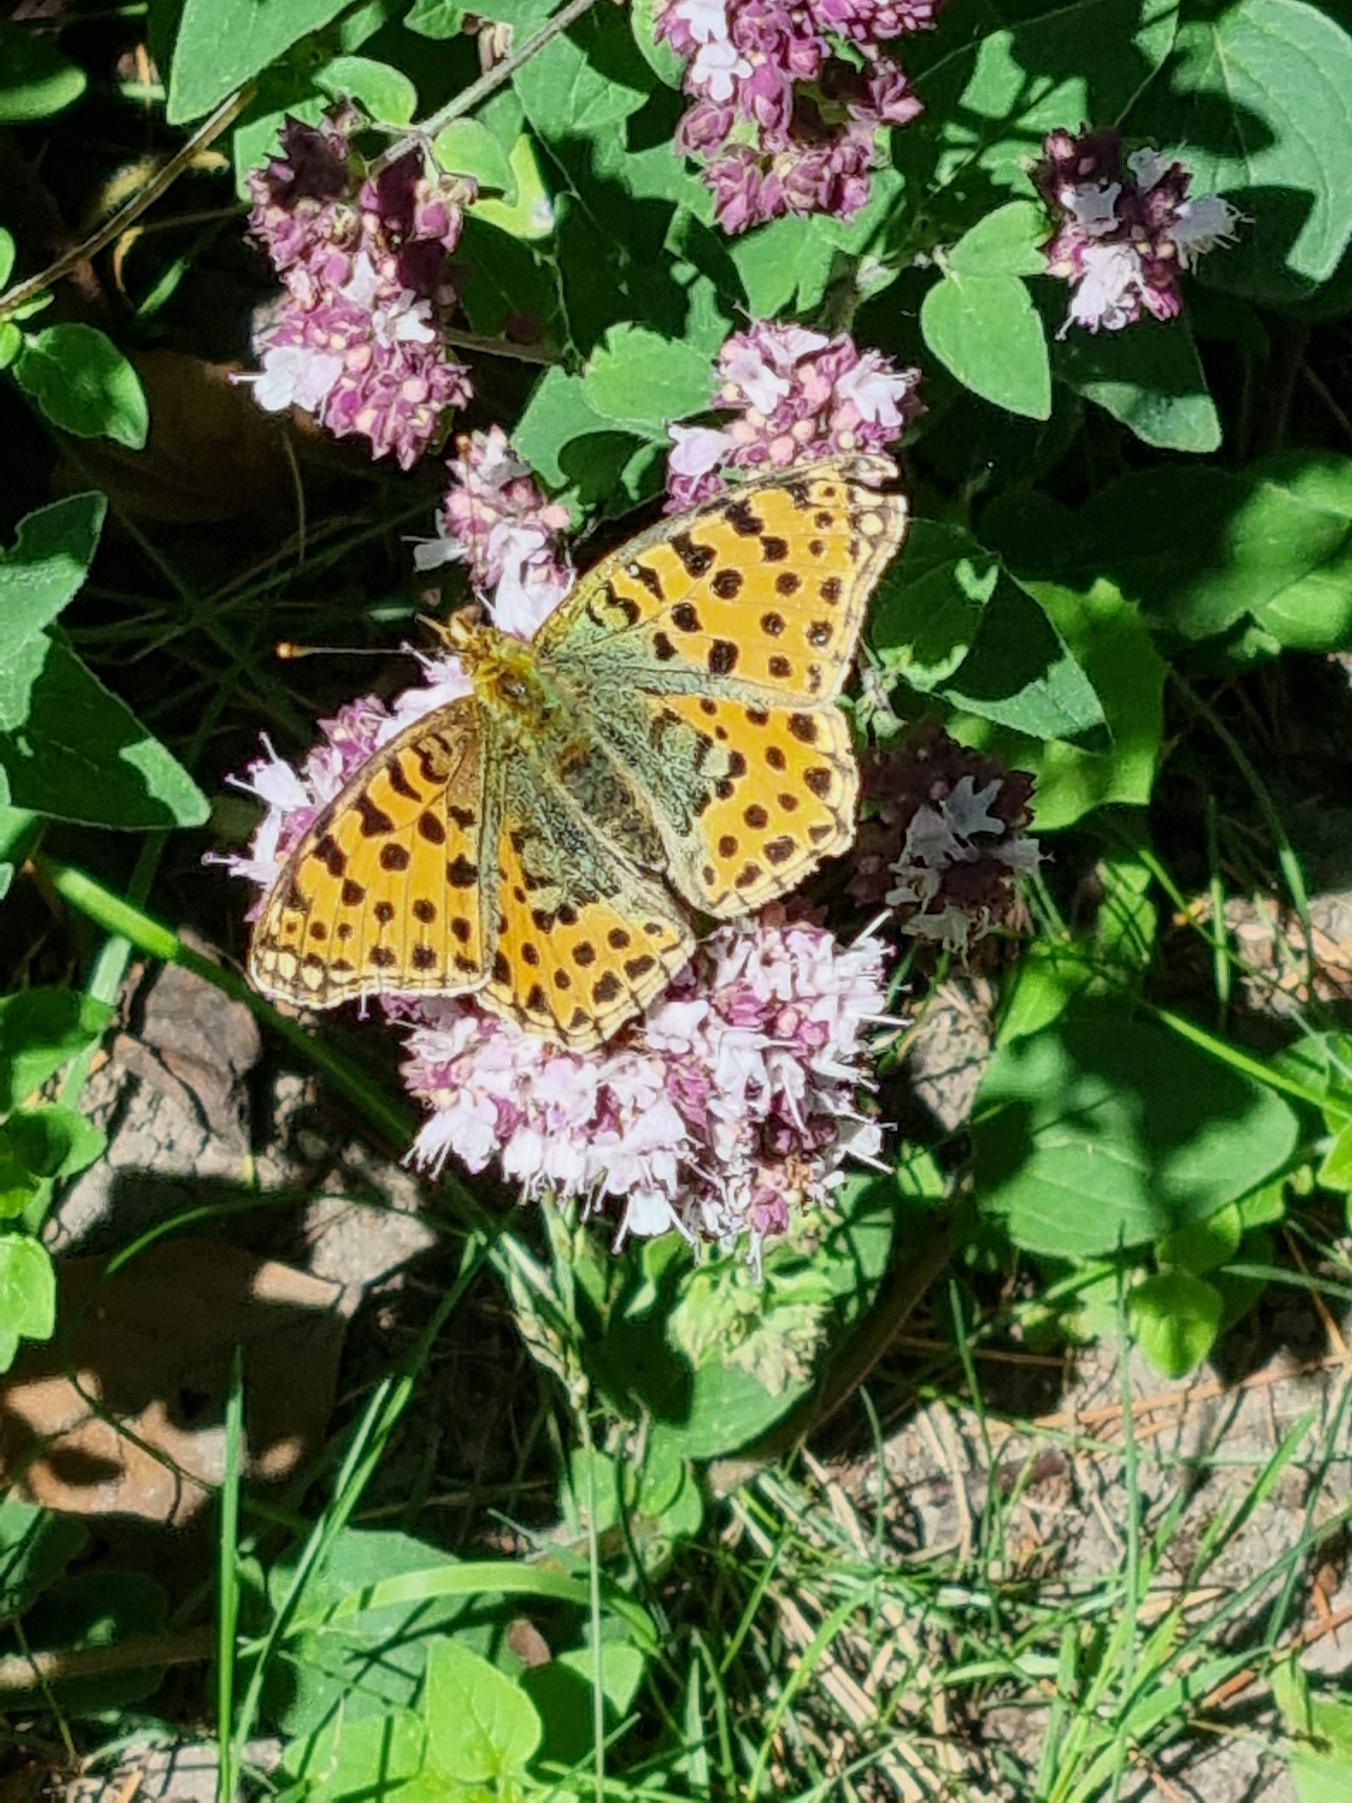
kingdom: Animalia
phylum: Arthropoda
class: Insecta
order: Lepidoptera
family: Nymphalidae
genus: Issoria
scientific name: Issoria lathonia
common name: Storplettet perlemorsommerfugl
